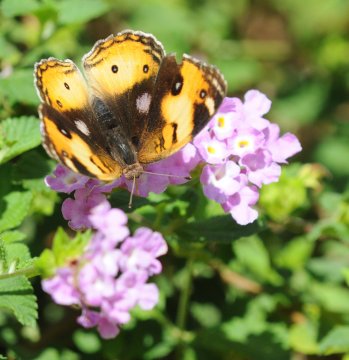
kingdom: Animalia
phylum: Arthropoda
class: Insecta
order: Lepidoptera
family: Nymphalidae
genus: Junonia
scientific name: Junonia hierta
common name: Yellow Pansy
